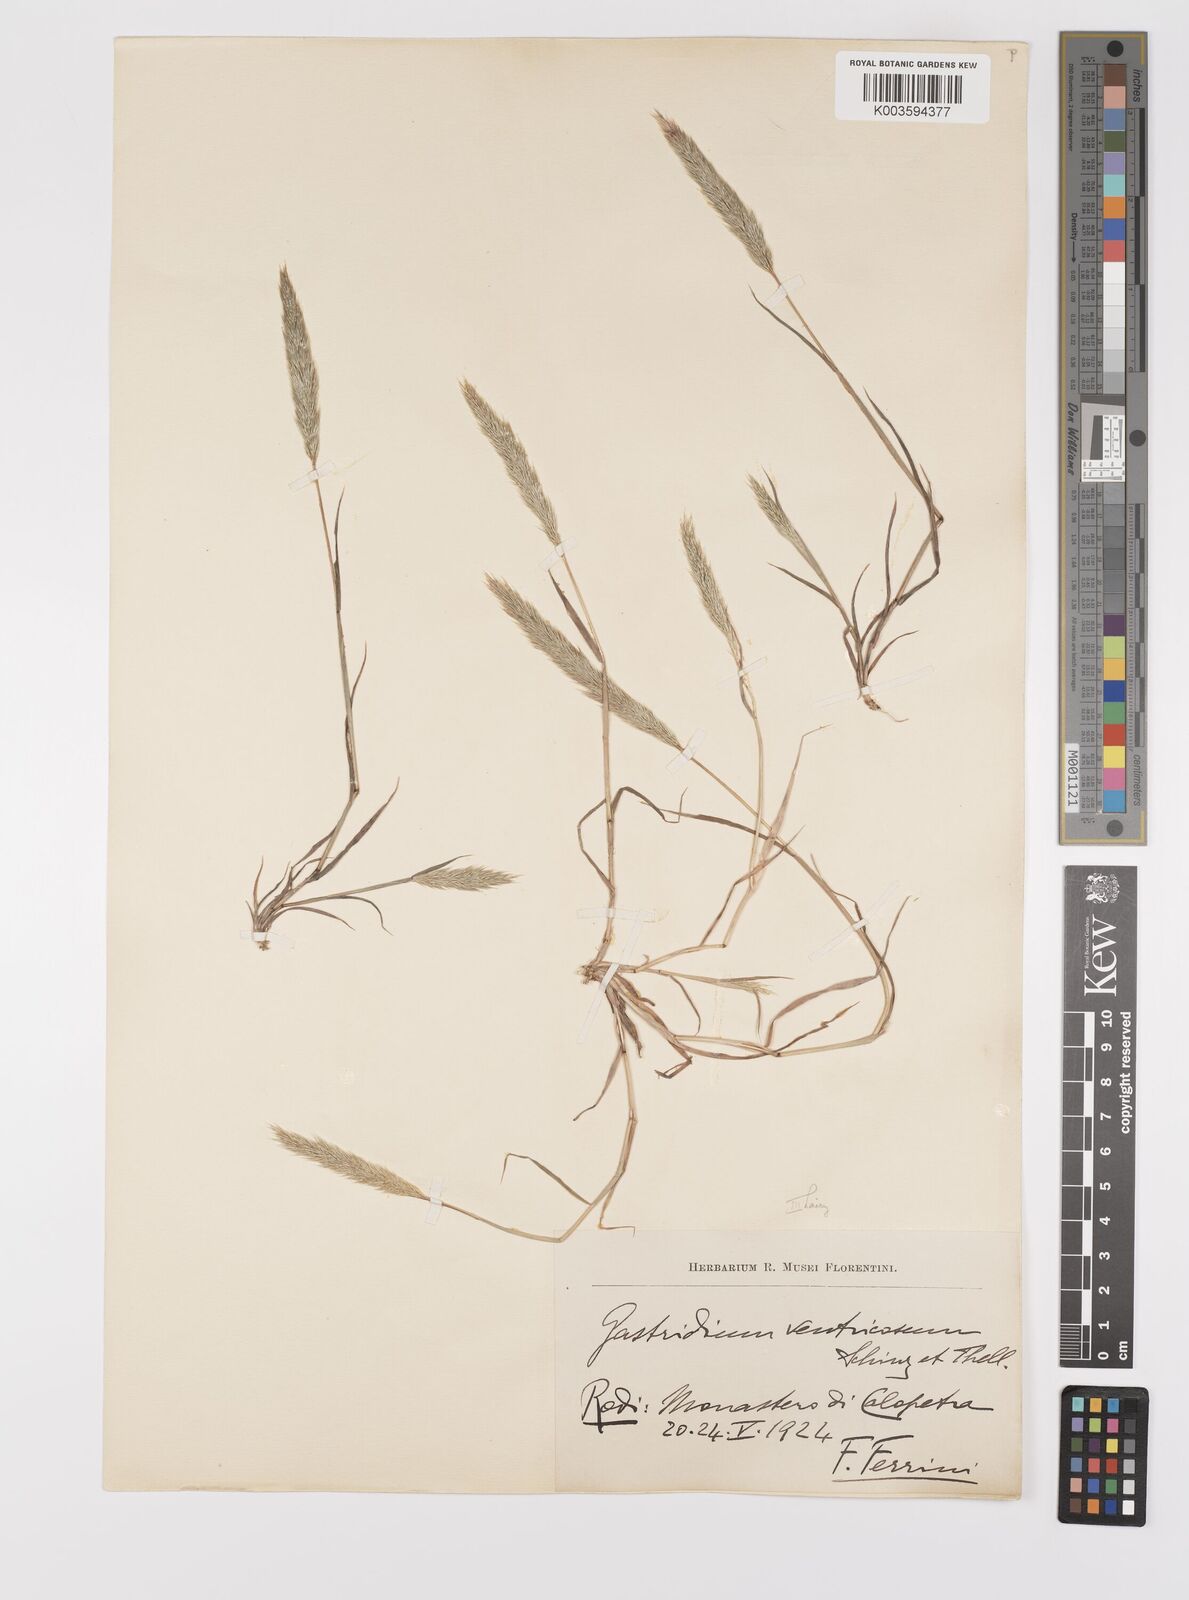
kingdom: Plantae
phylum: Tracheophyta
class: Liliopsida
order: Poales
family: Poaceae
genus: Gastridium
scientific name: Gastridium phleoides
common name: Nit grass
